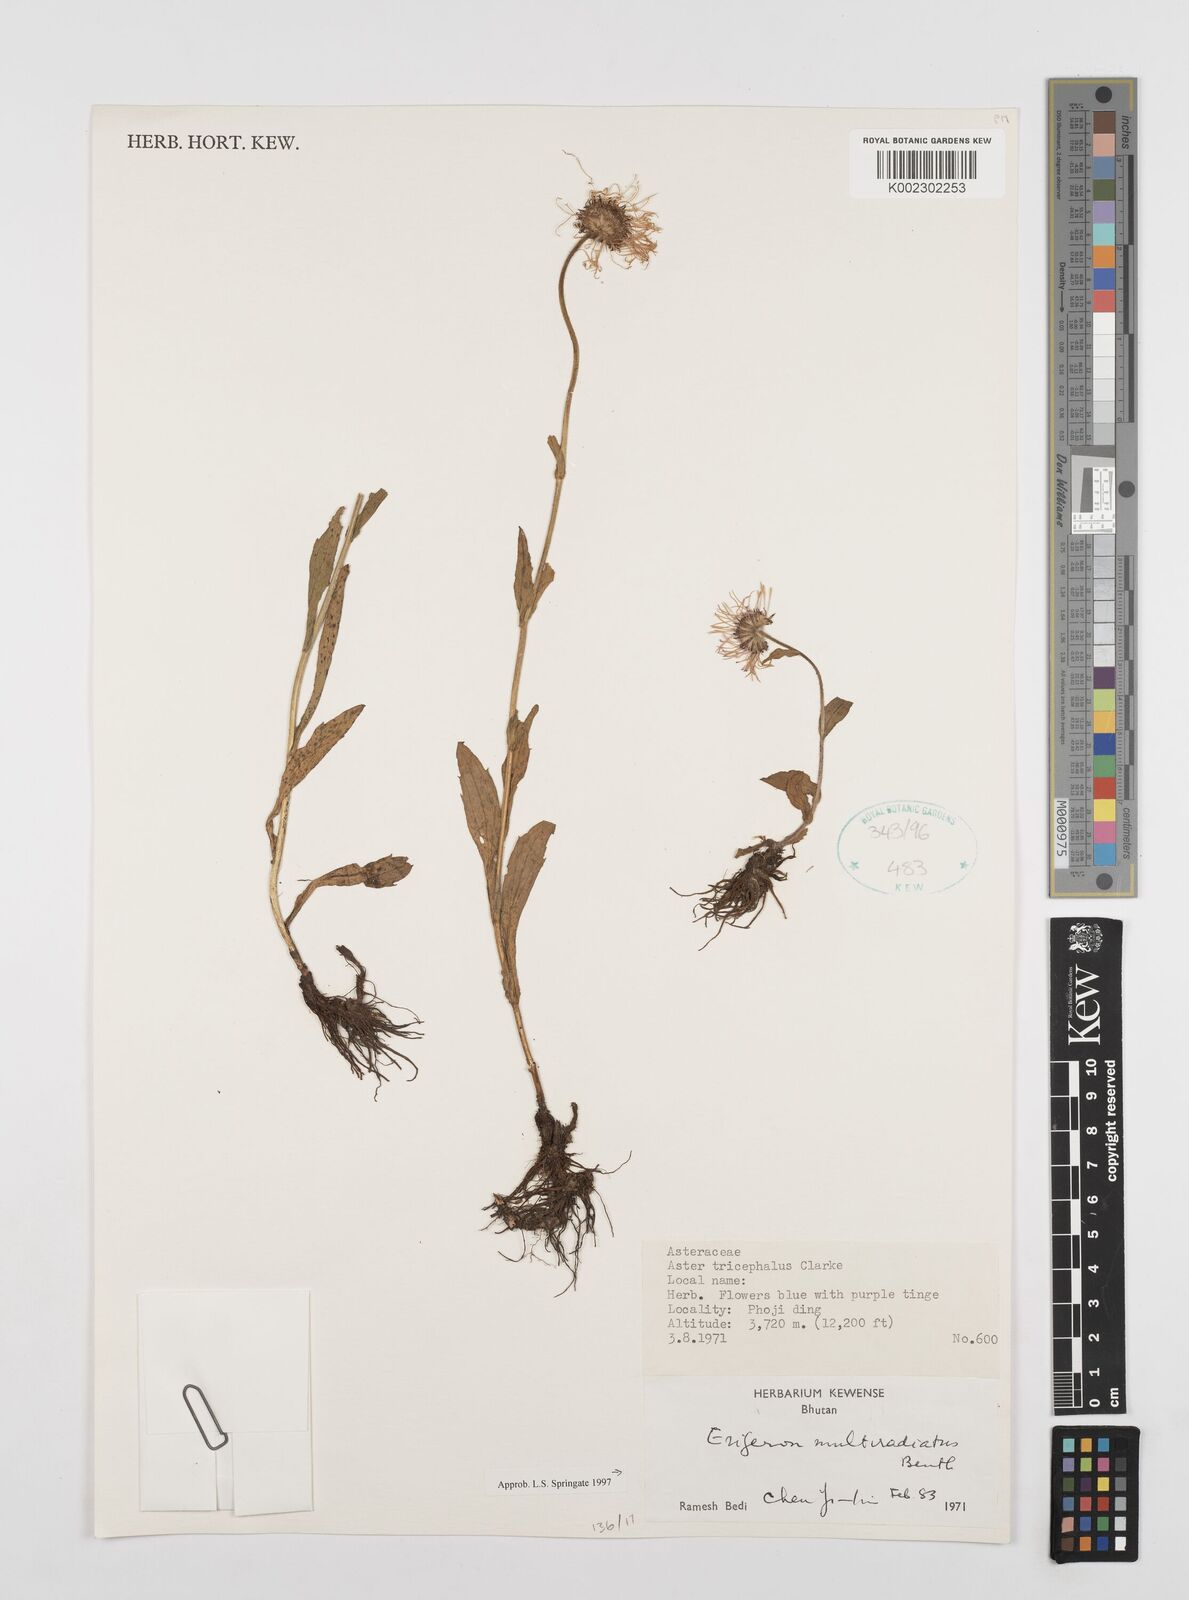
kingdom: Plantae
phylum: Tracheophyta
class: Magnoliopsida
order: Asterales
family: Asteraceae
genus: Erigeron
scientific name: Erigeron multiradiatus
